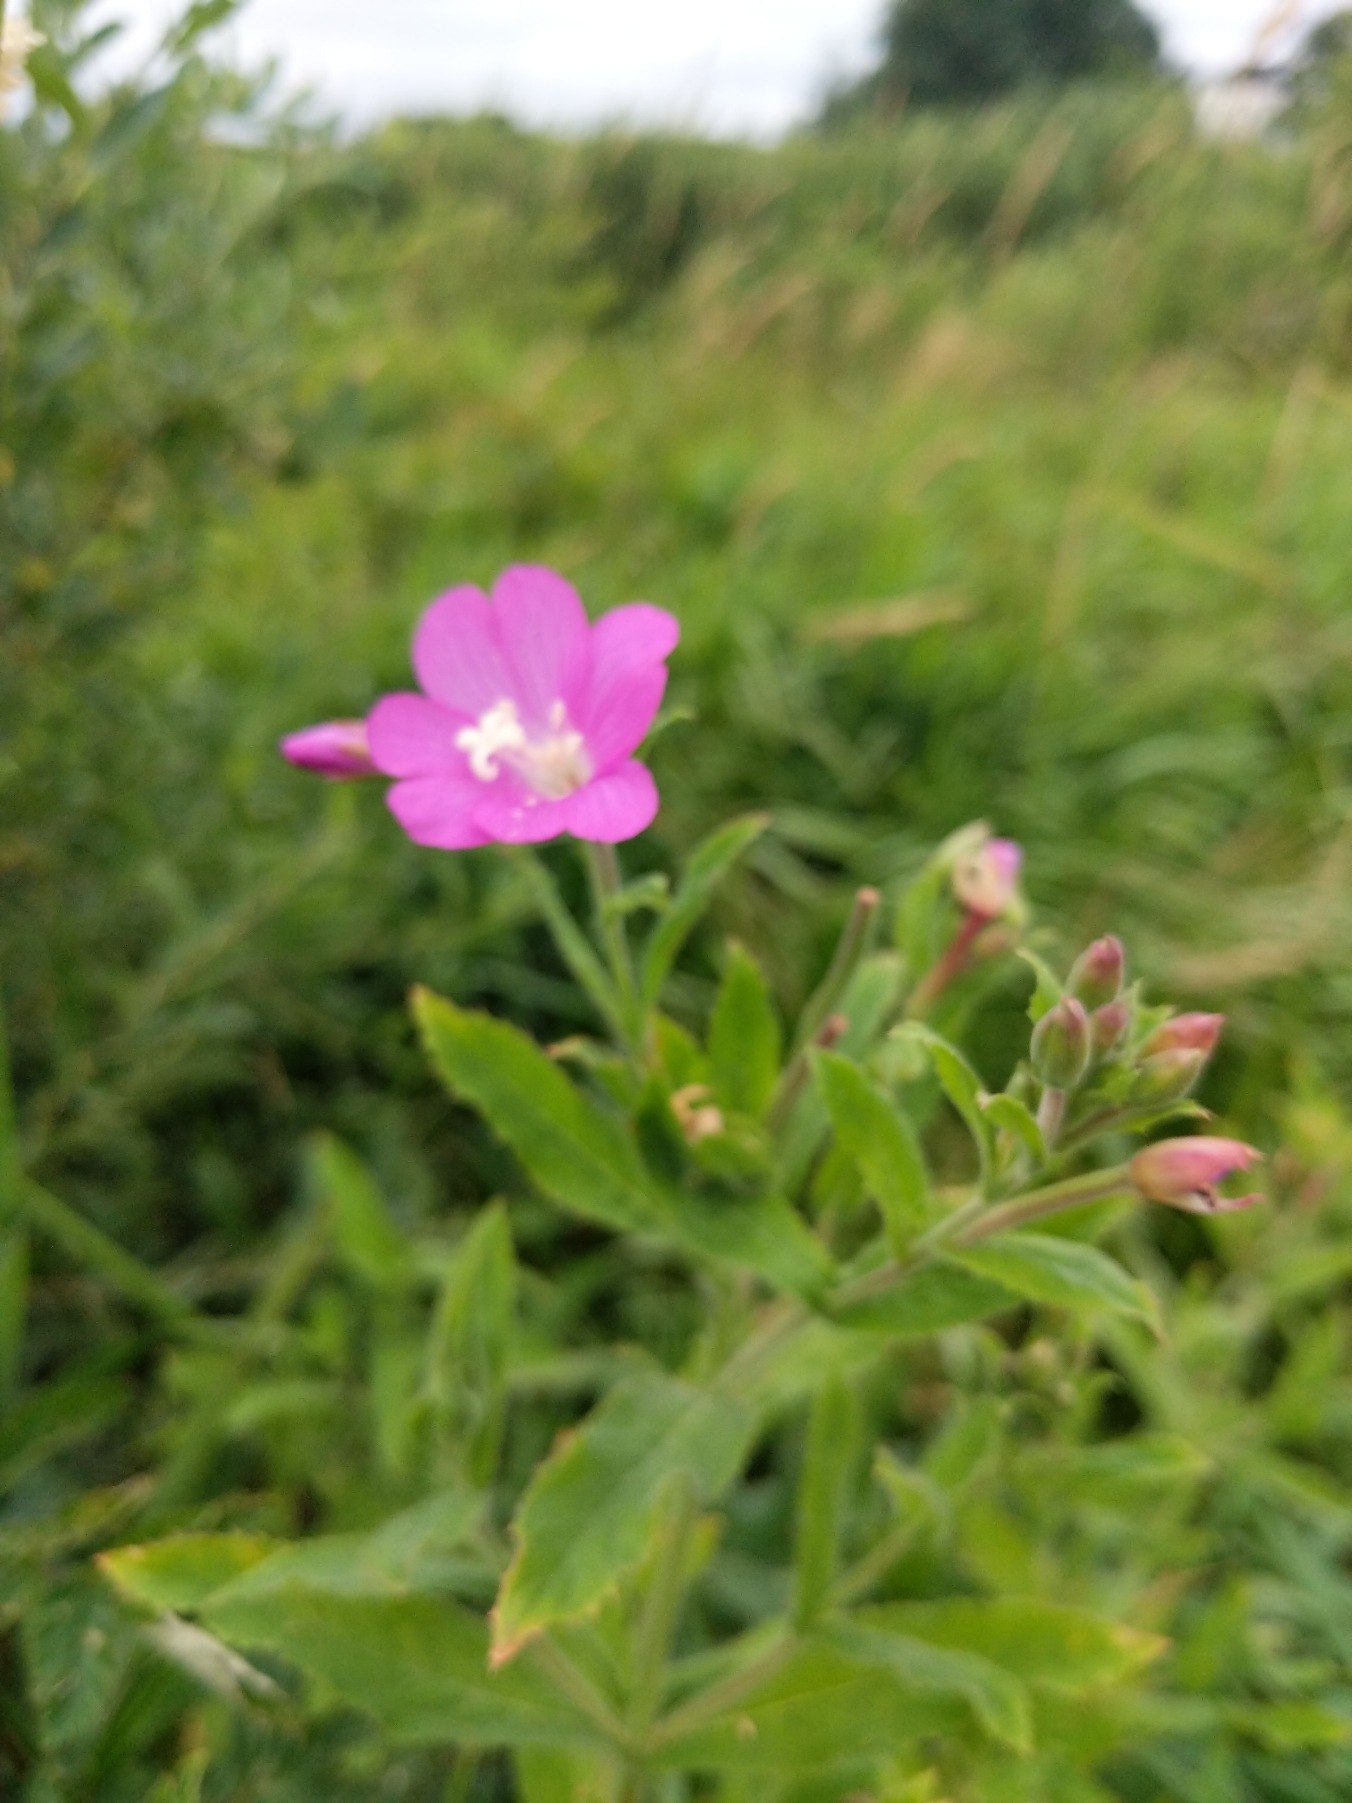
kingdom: Plantae
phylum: Tracheophyta
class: Magnoliopsida
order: Myrtales
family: Onagraceae
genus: Epilobium
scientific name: Epilobium hirsutum
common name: Lådden dueurt
